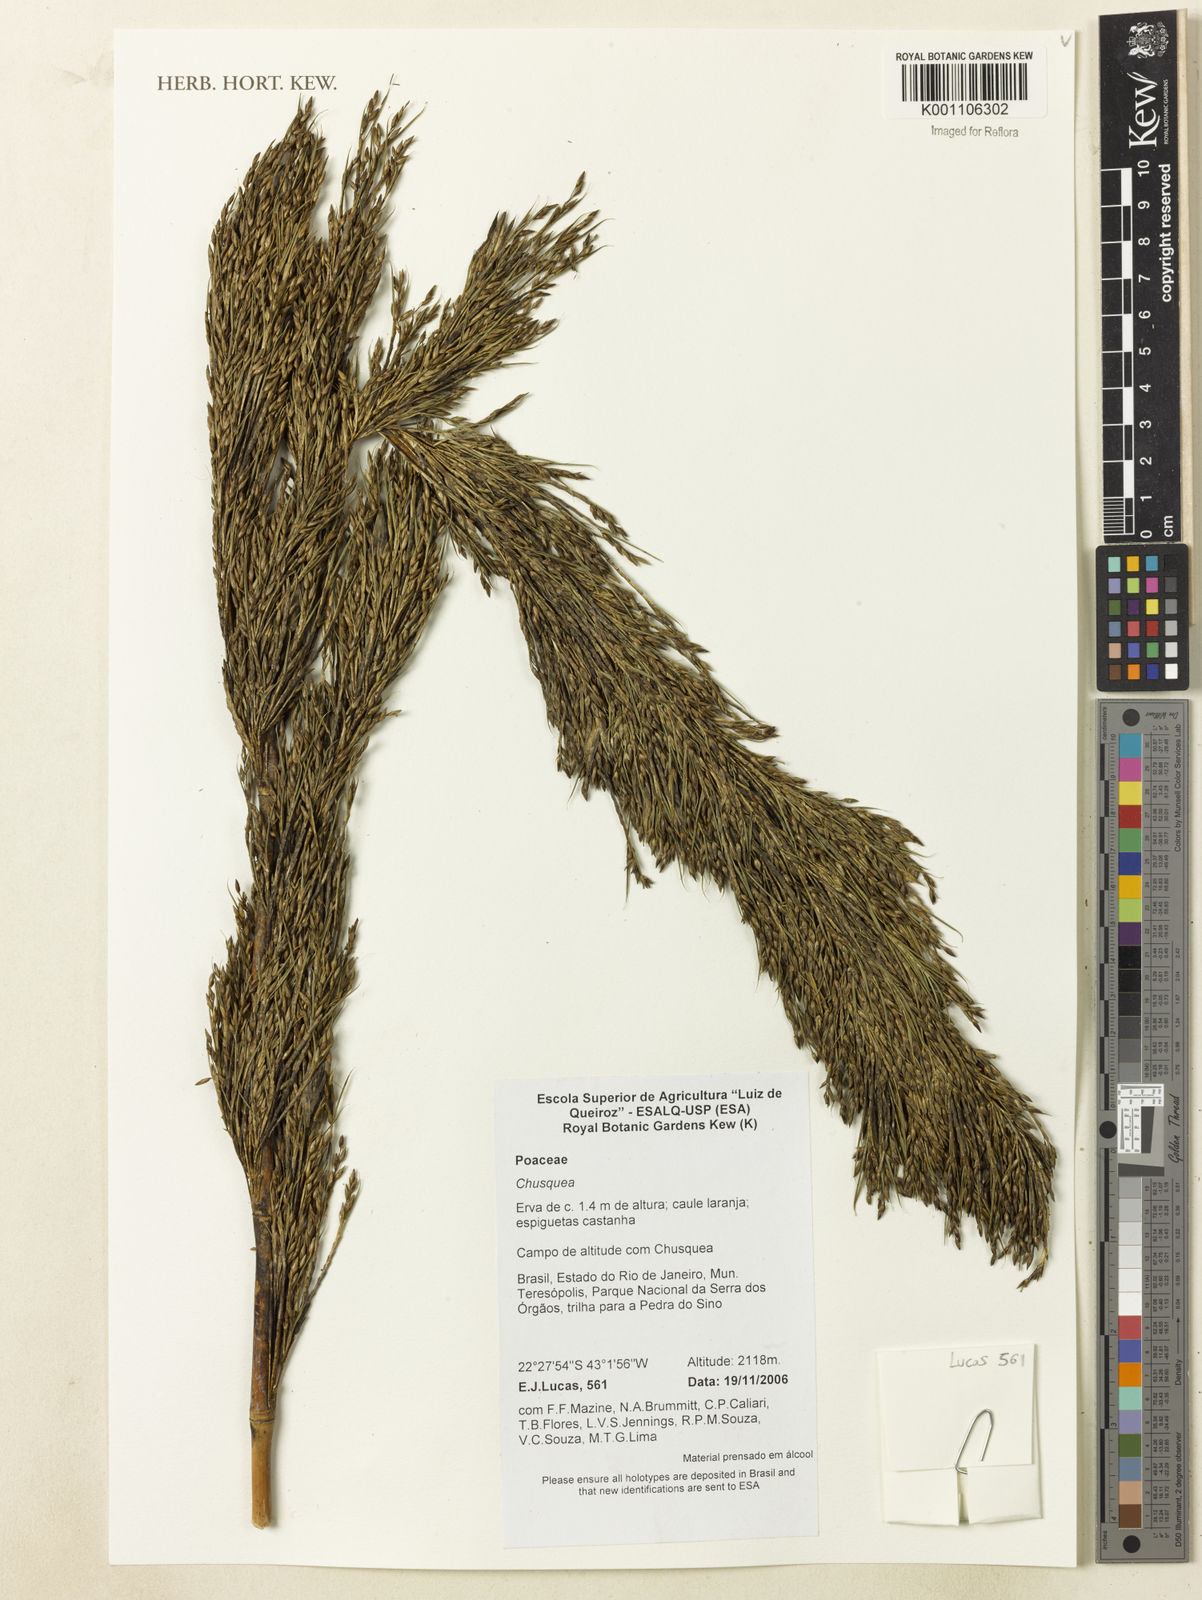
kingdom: Plantae
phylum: Tracheophyta
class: Liliopsida
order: Poales
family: Poaceae
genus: Chusquea
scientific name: Chusquea
